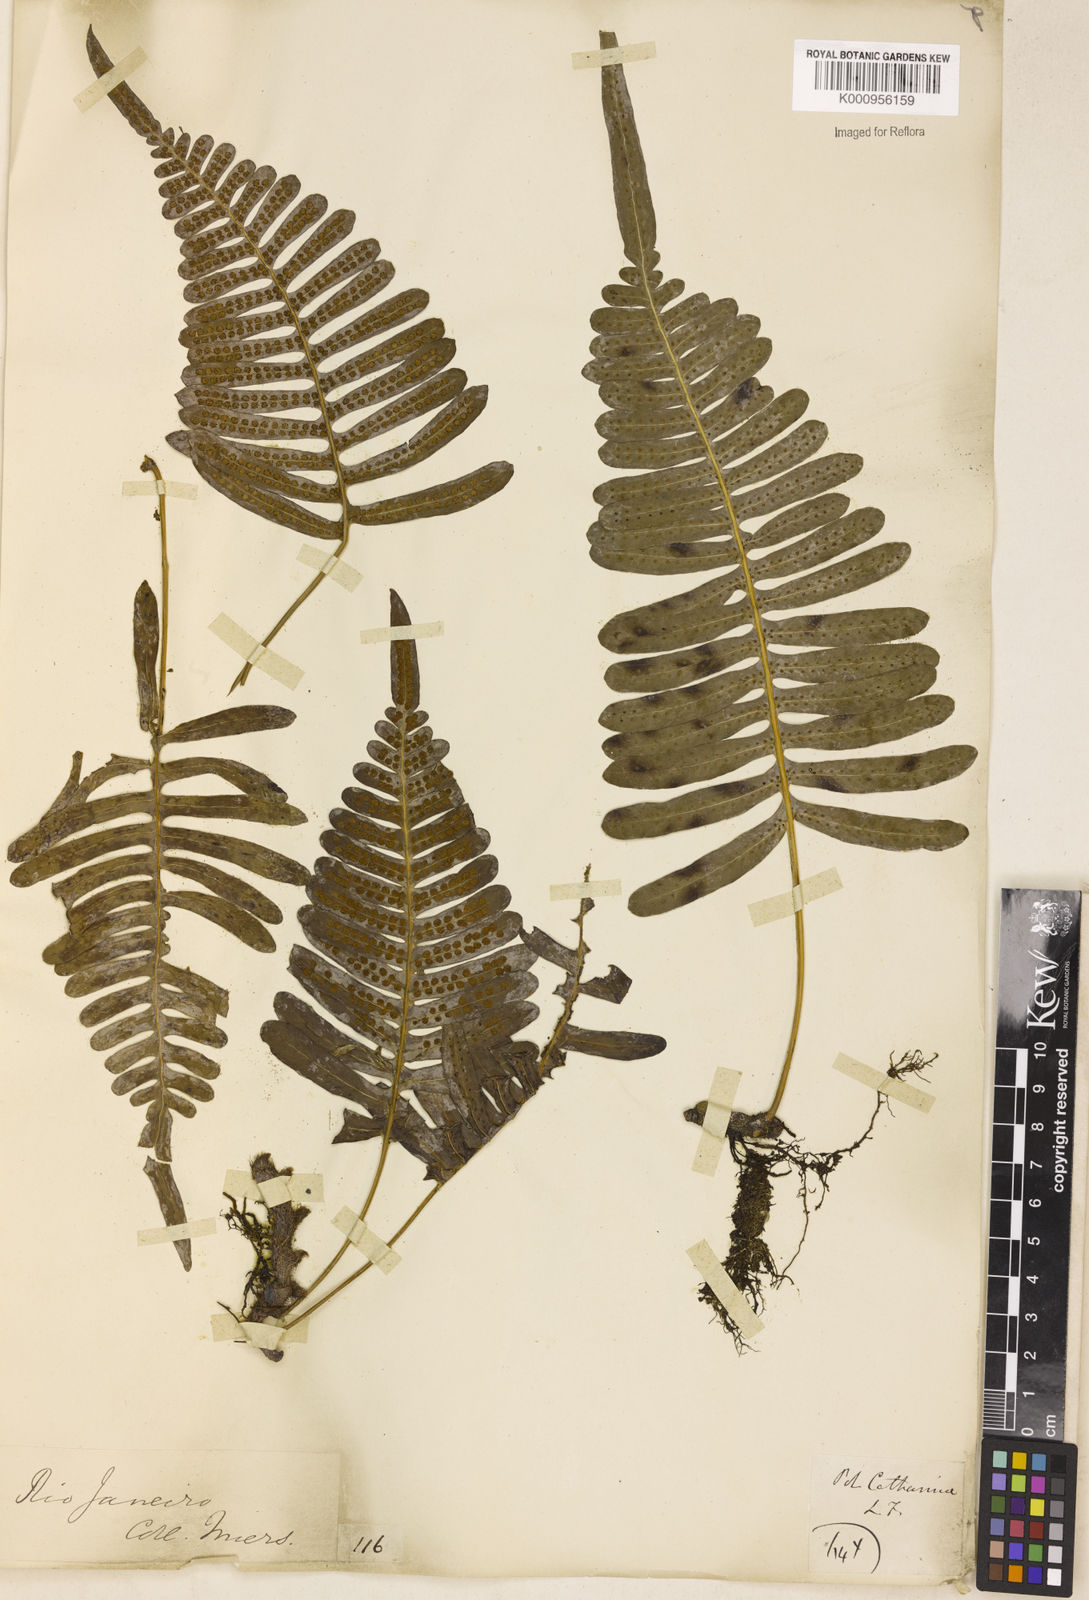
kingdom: Plantae
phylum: Tracheophyta
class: Polypodiopsida
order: Polypodiales
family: Polypodiaceae
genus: Serpocaulon
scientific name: Serpocaulon catharinae
